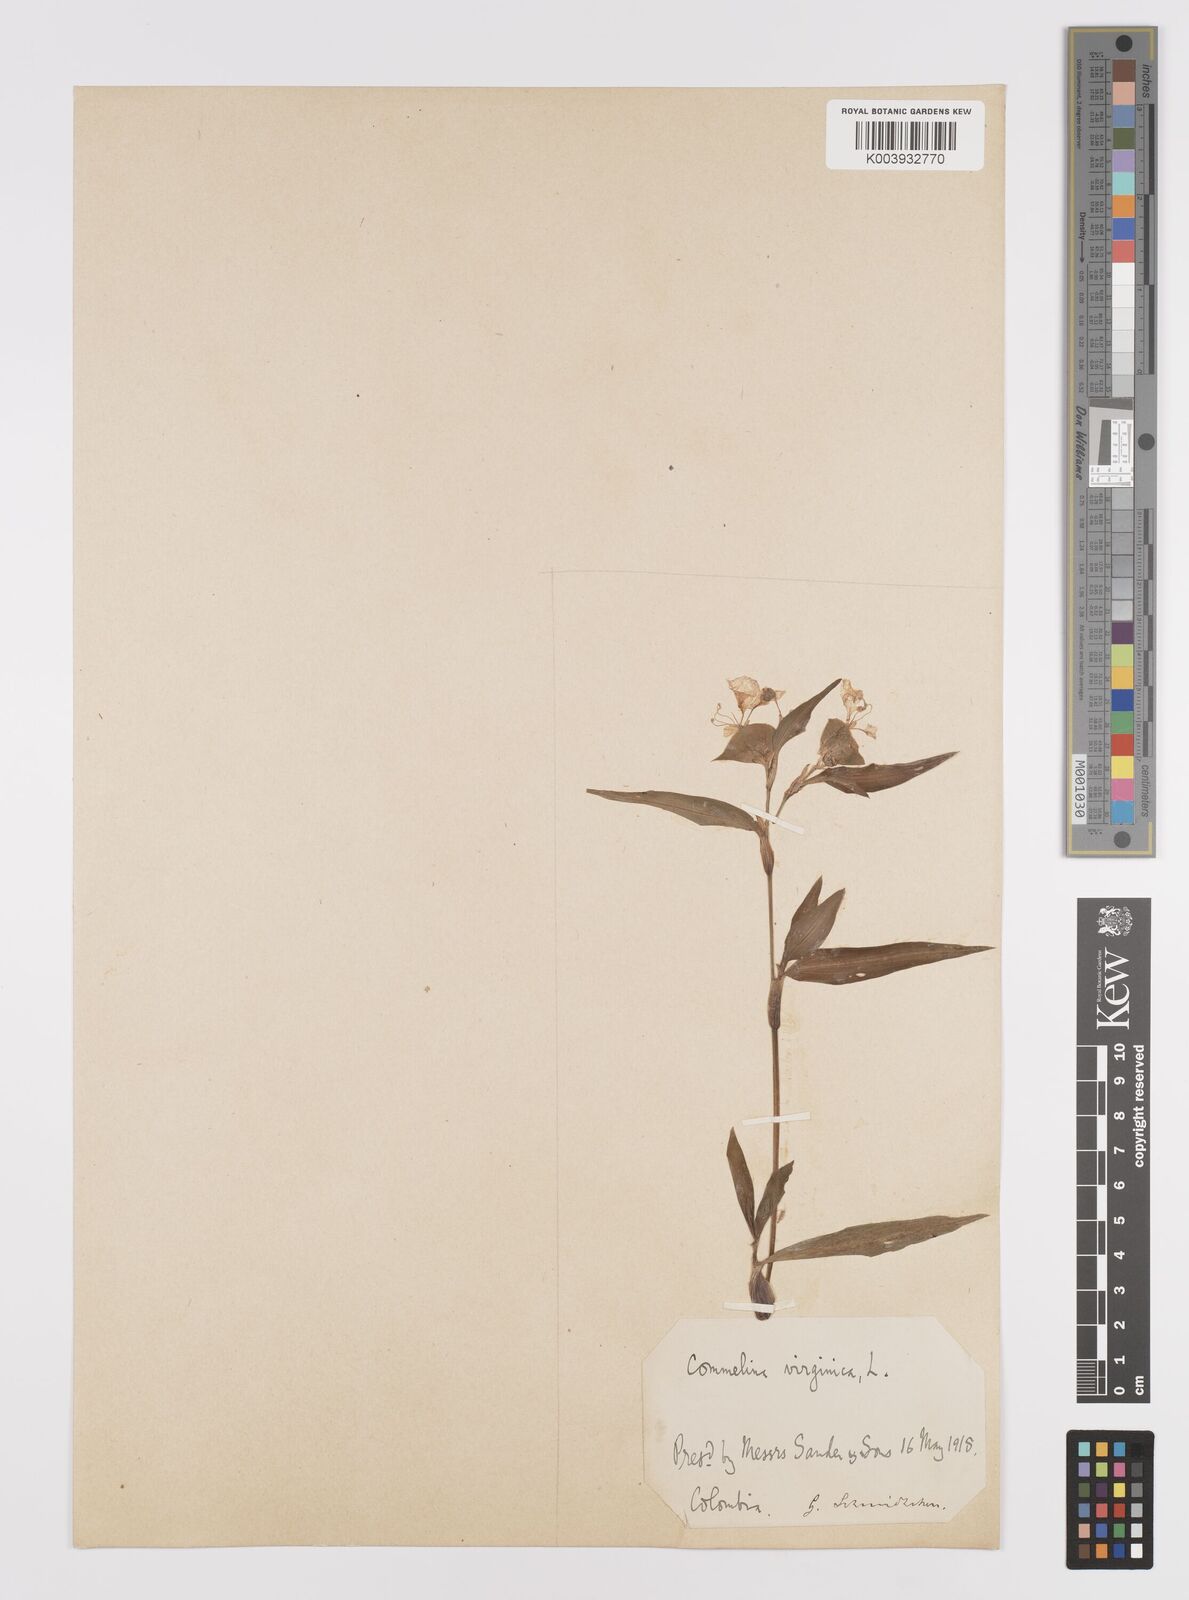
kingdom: Plantae
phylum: Tracheophyta
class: Liliopsida
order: Commelinales
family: Commelinaceae
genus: Commelina
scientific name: Commelina virginica
